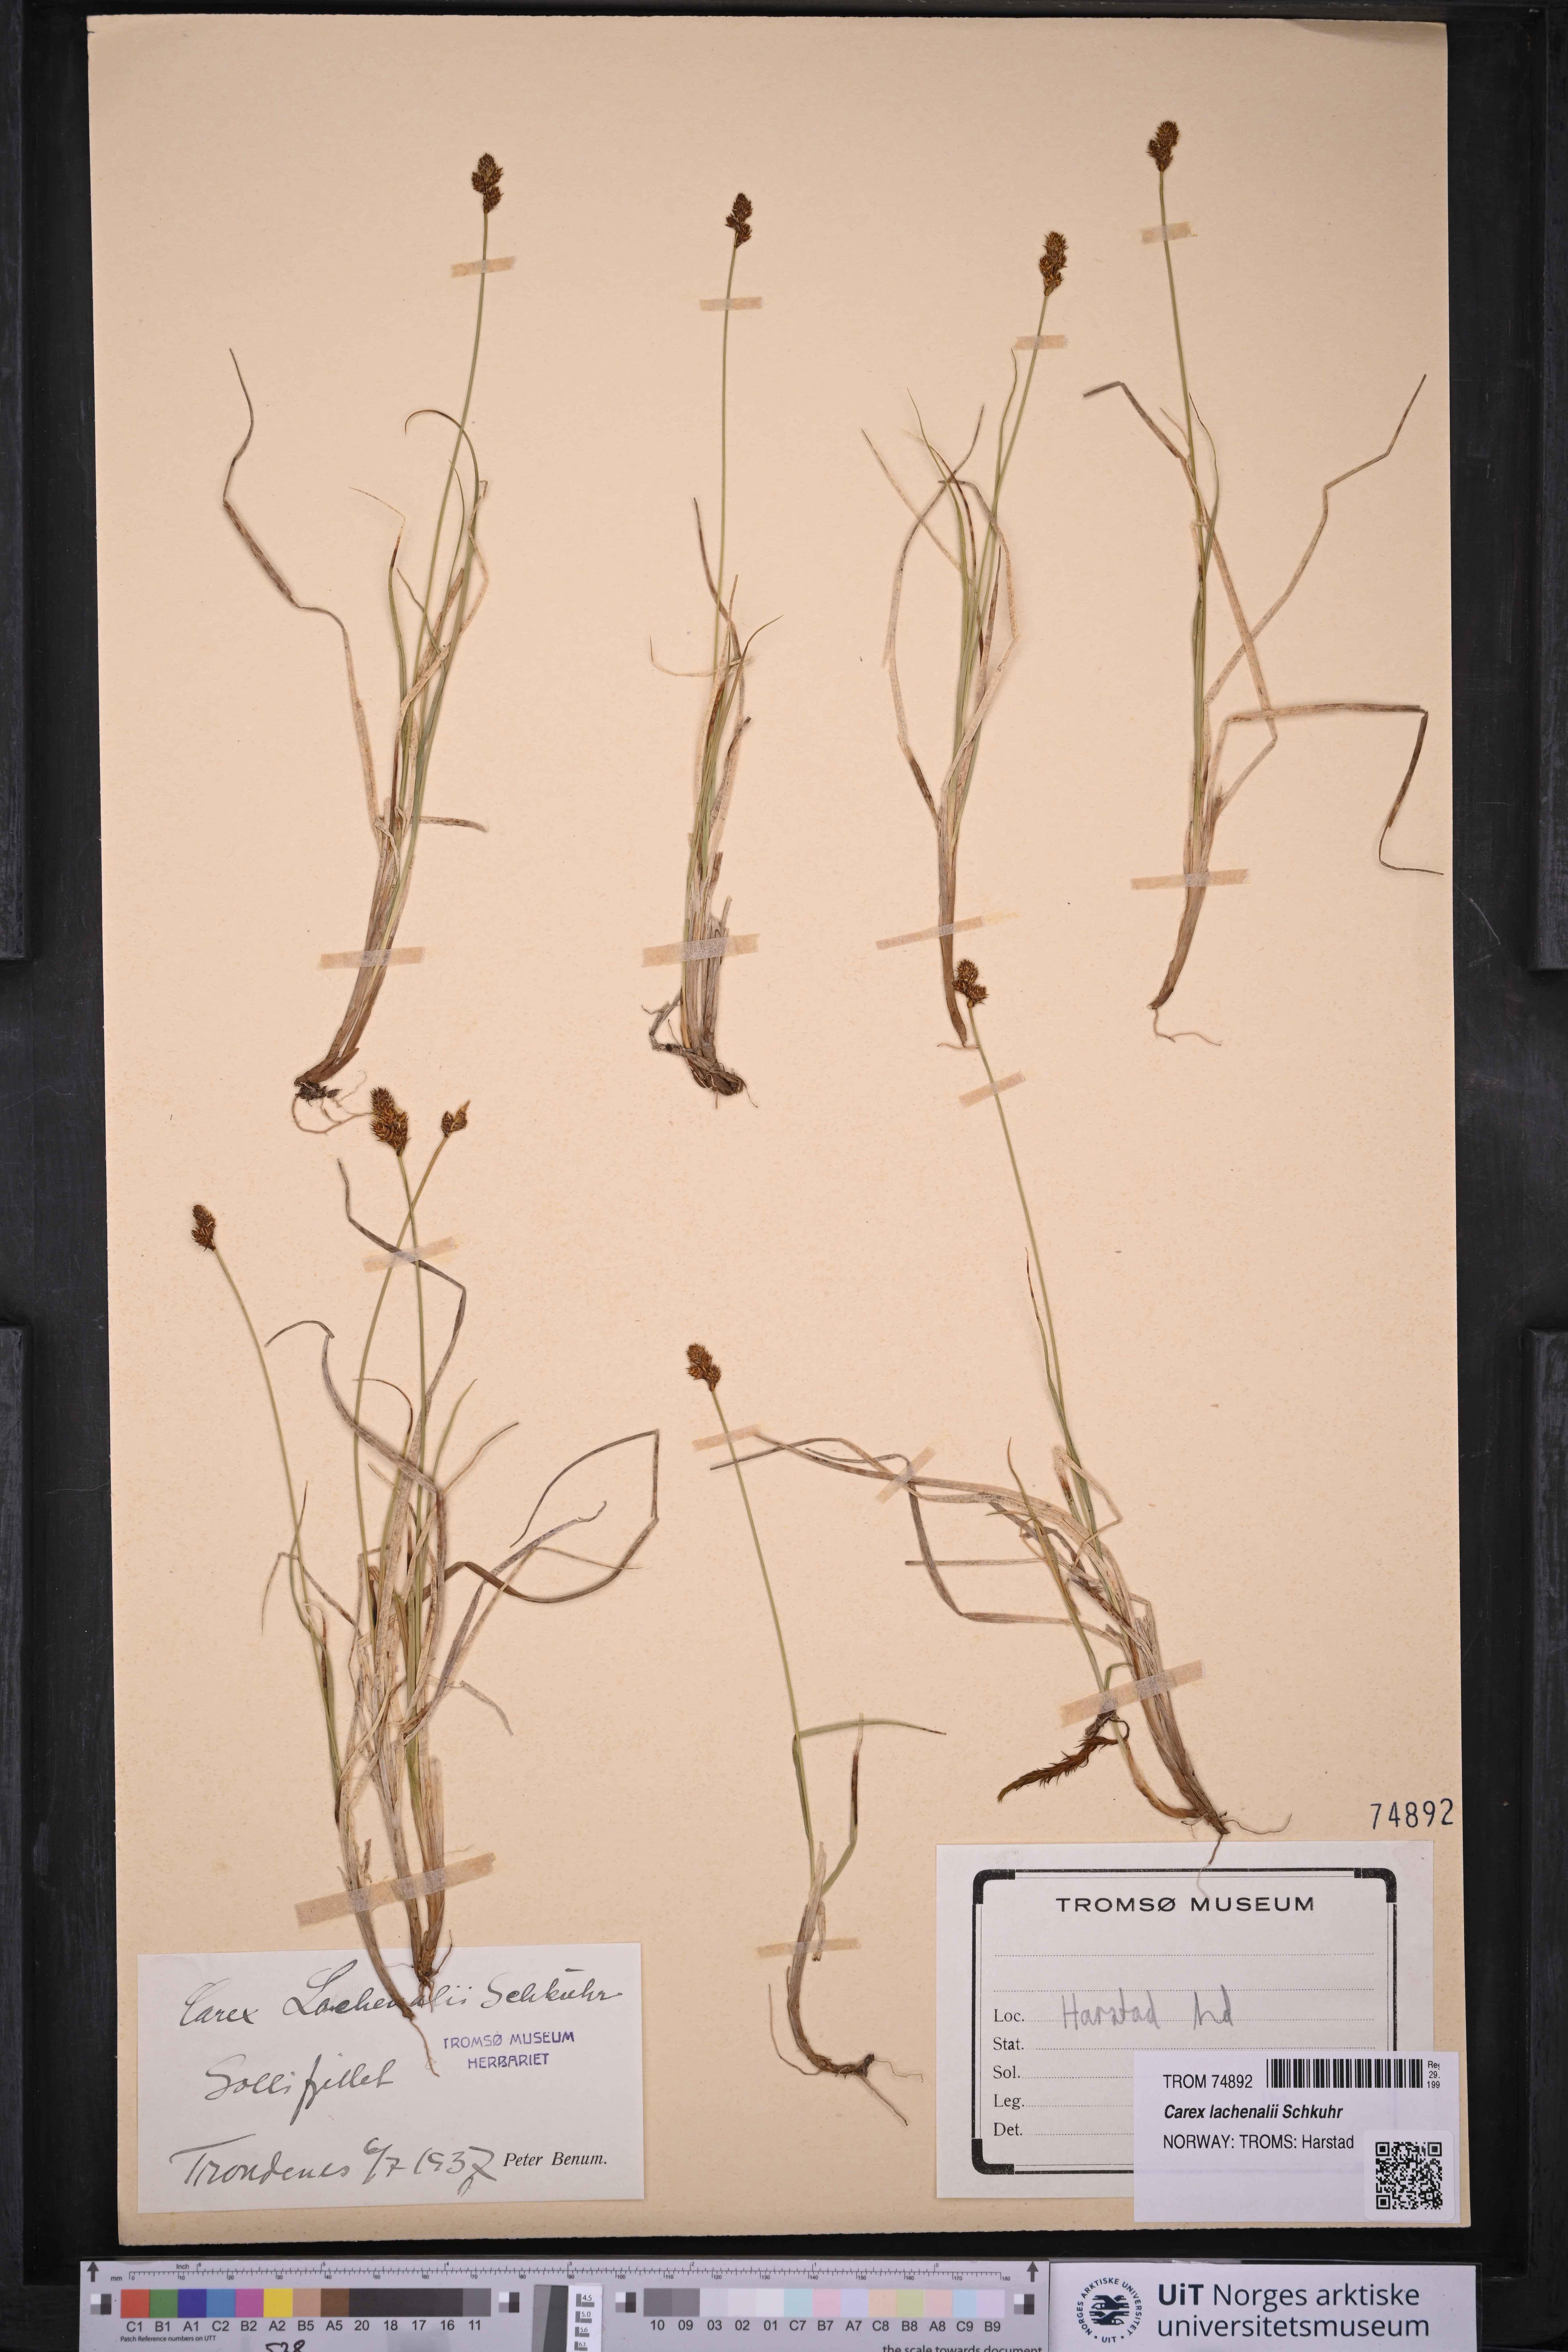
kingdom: Plantae
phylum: Tracheophyta
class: Liliopsida
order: Poales
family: Cyperaceae
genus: Carex
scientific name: Carex lachenalii
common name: Hare's-foot sedge
